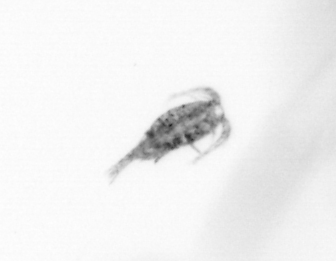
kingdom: Animalia
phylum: Arthropoda
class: Copepoda
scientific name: Copepoda
